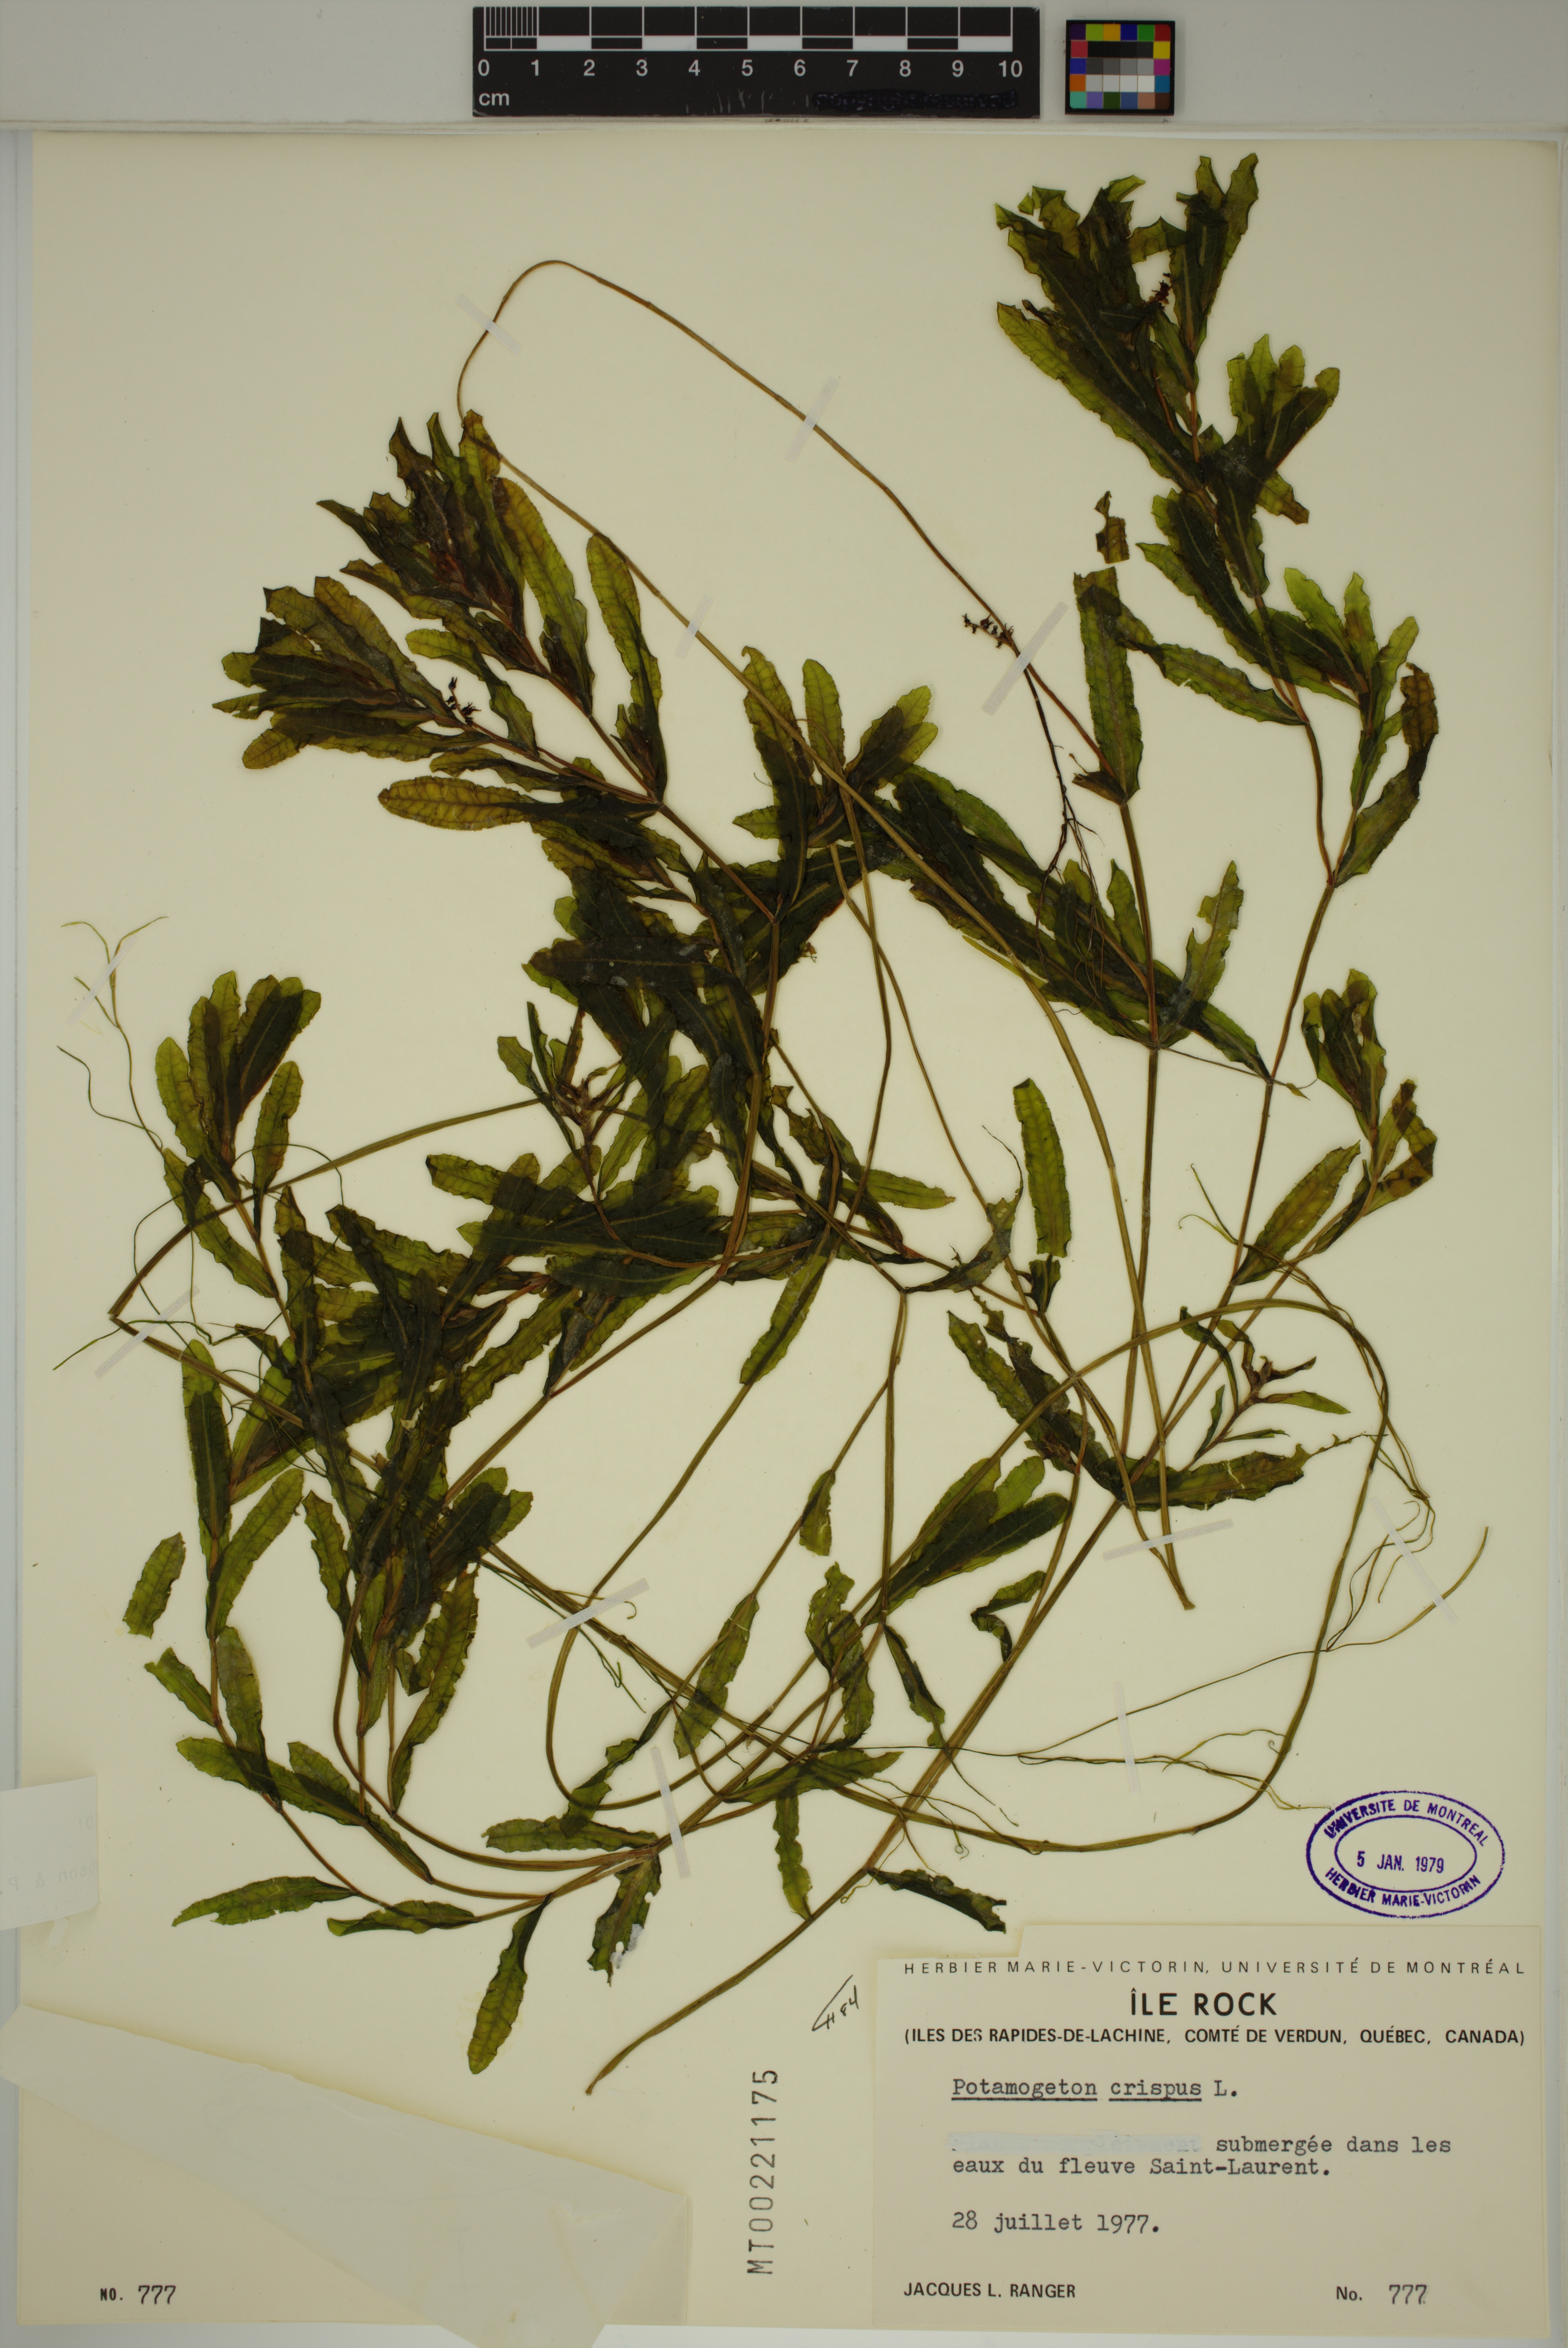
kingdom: Plantae
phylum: Tracheophyta
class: Liliopsida
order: Alismatales
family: Potamogetonaceae
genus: Potamogeton
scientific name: Potamogeton crispus
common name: Curled pondweed
